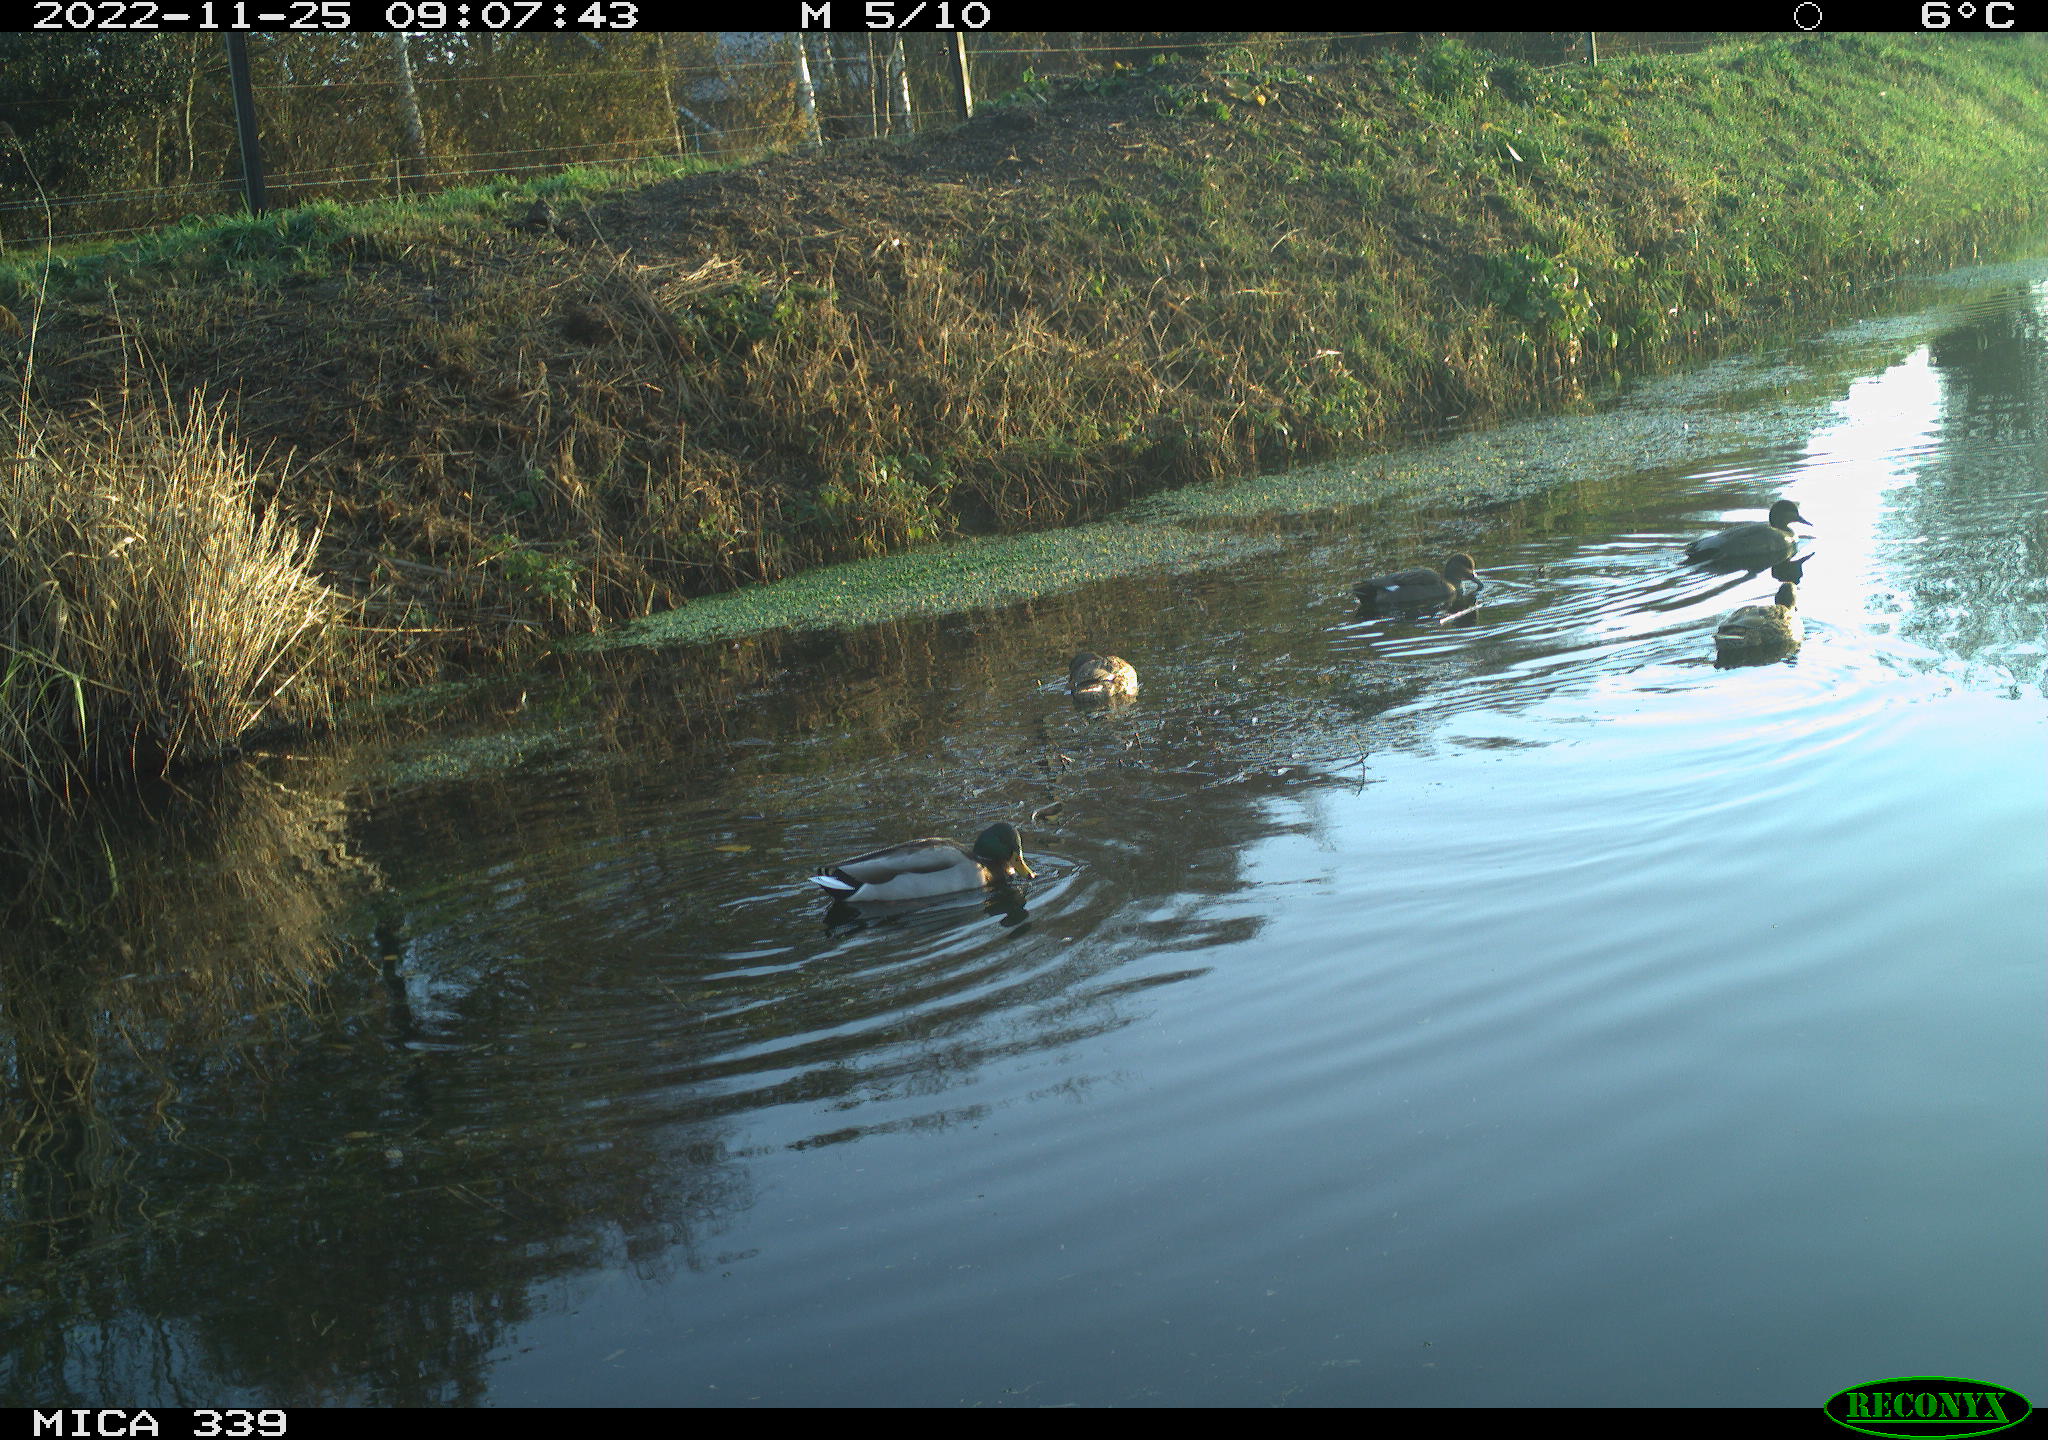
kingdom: Animalia
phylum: Chordata
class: Aves
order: Anseriformes
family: Anatidae
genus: Anas
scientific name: Anas
